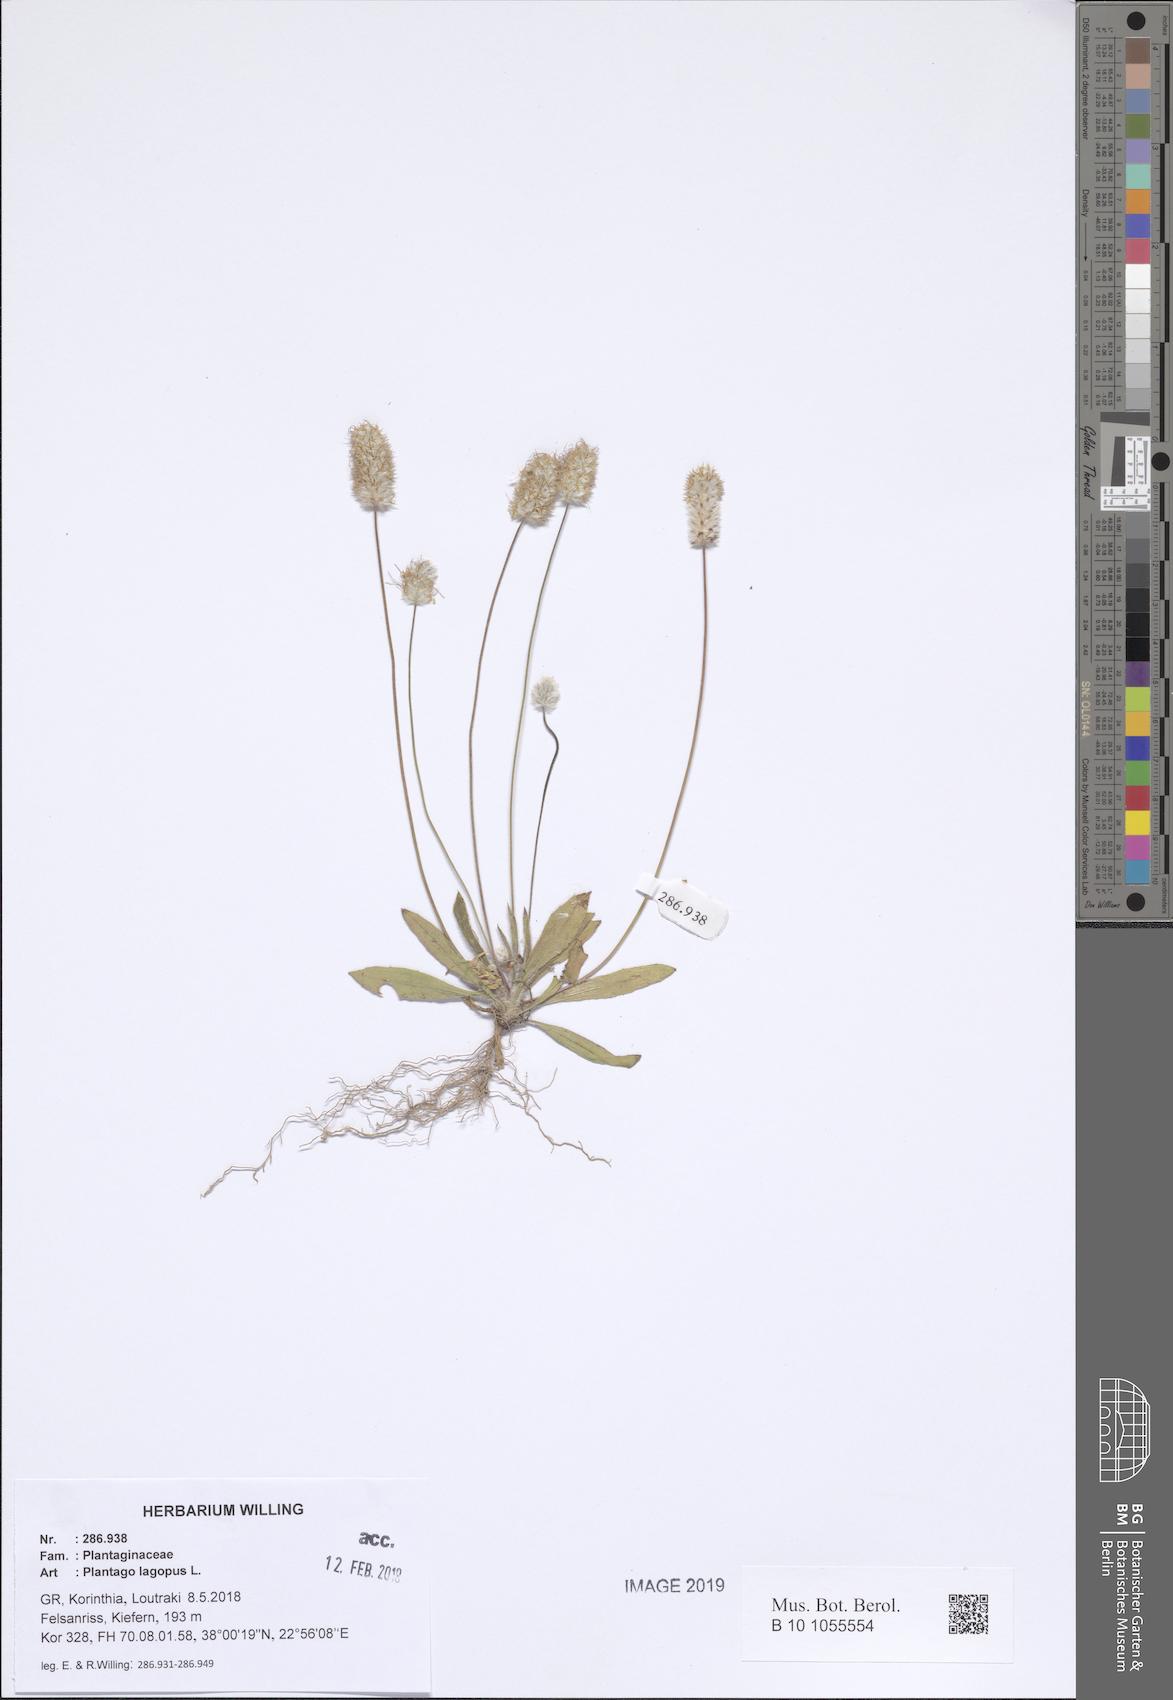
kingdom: Plantae
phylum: Tracheophyta
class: Magnoliopsida
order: Lamiales
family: Plantaginaceae
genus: Plantago
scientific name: Plantago lagopus
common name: Hare-foot plantain
